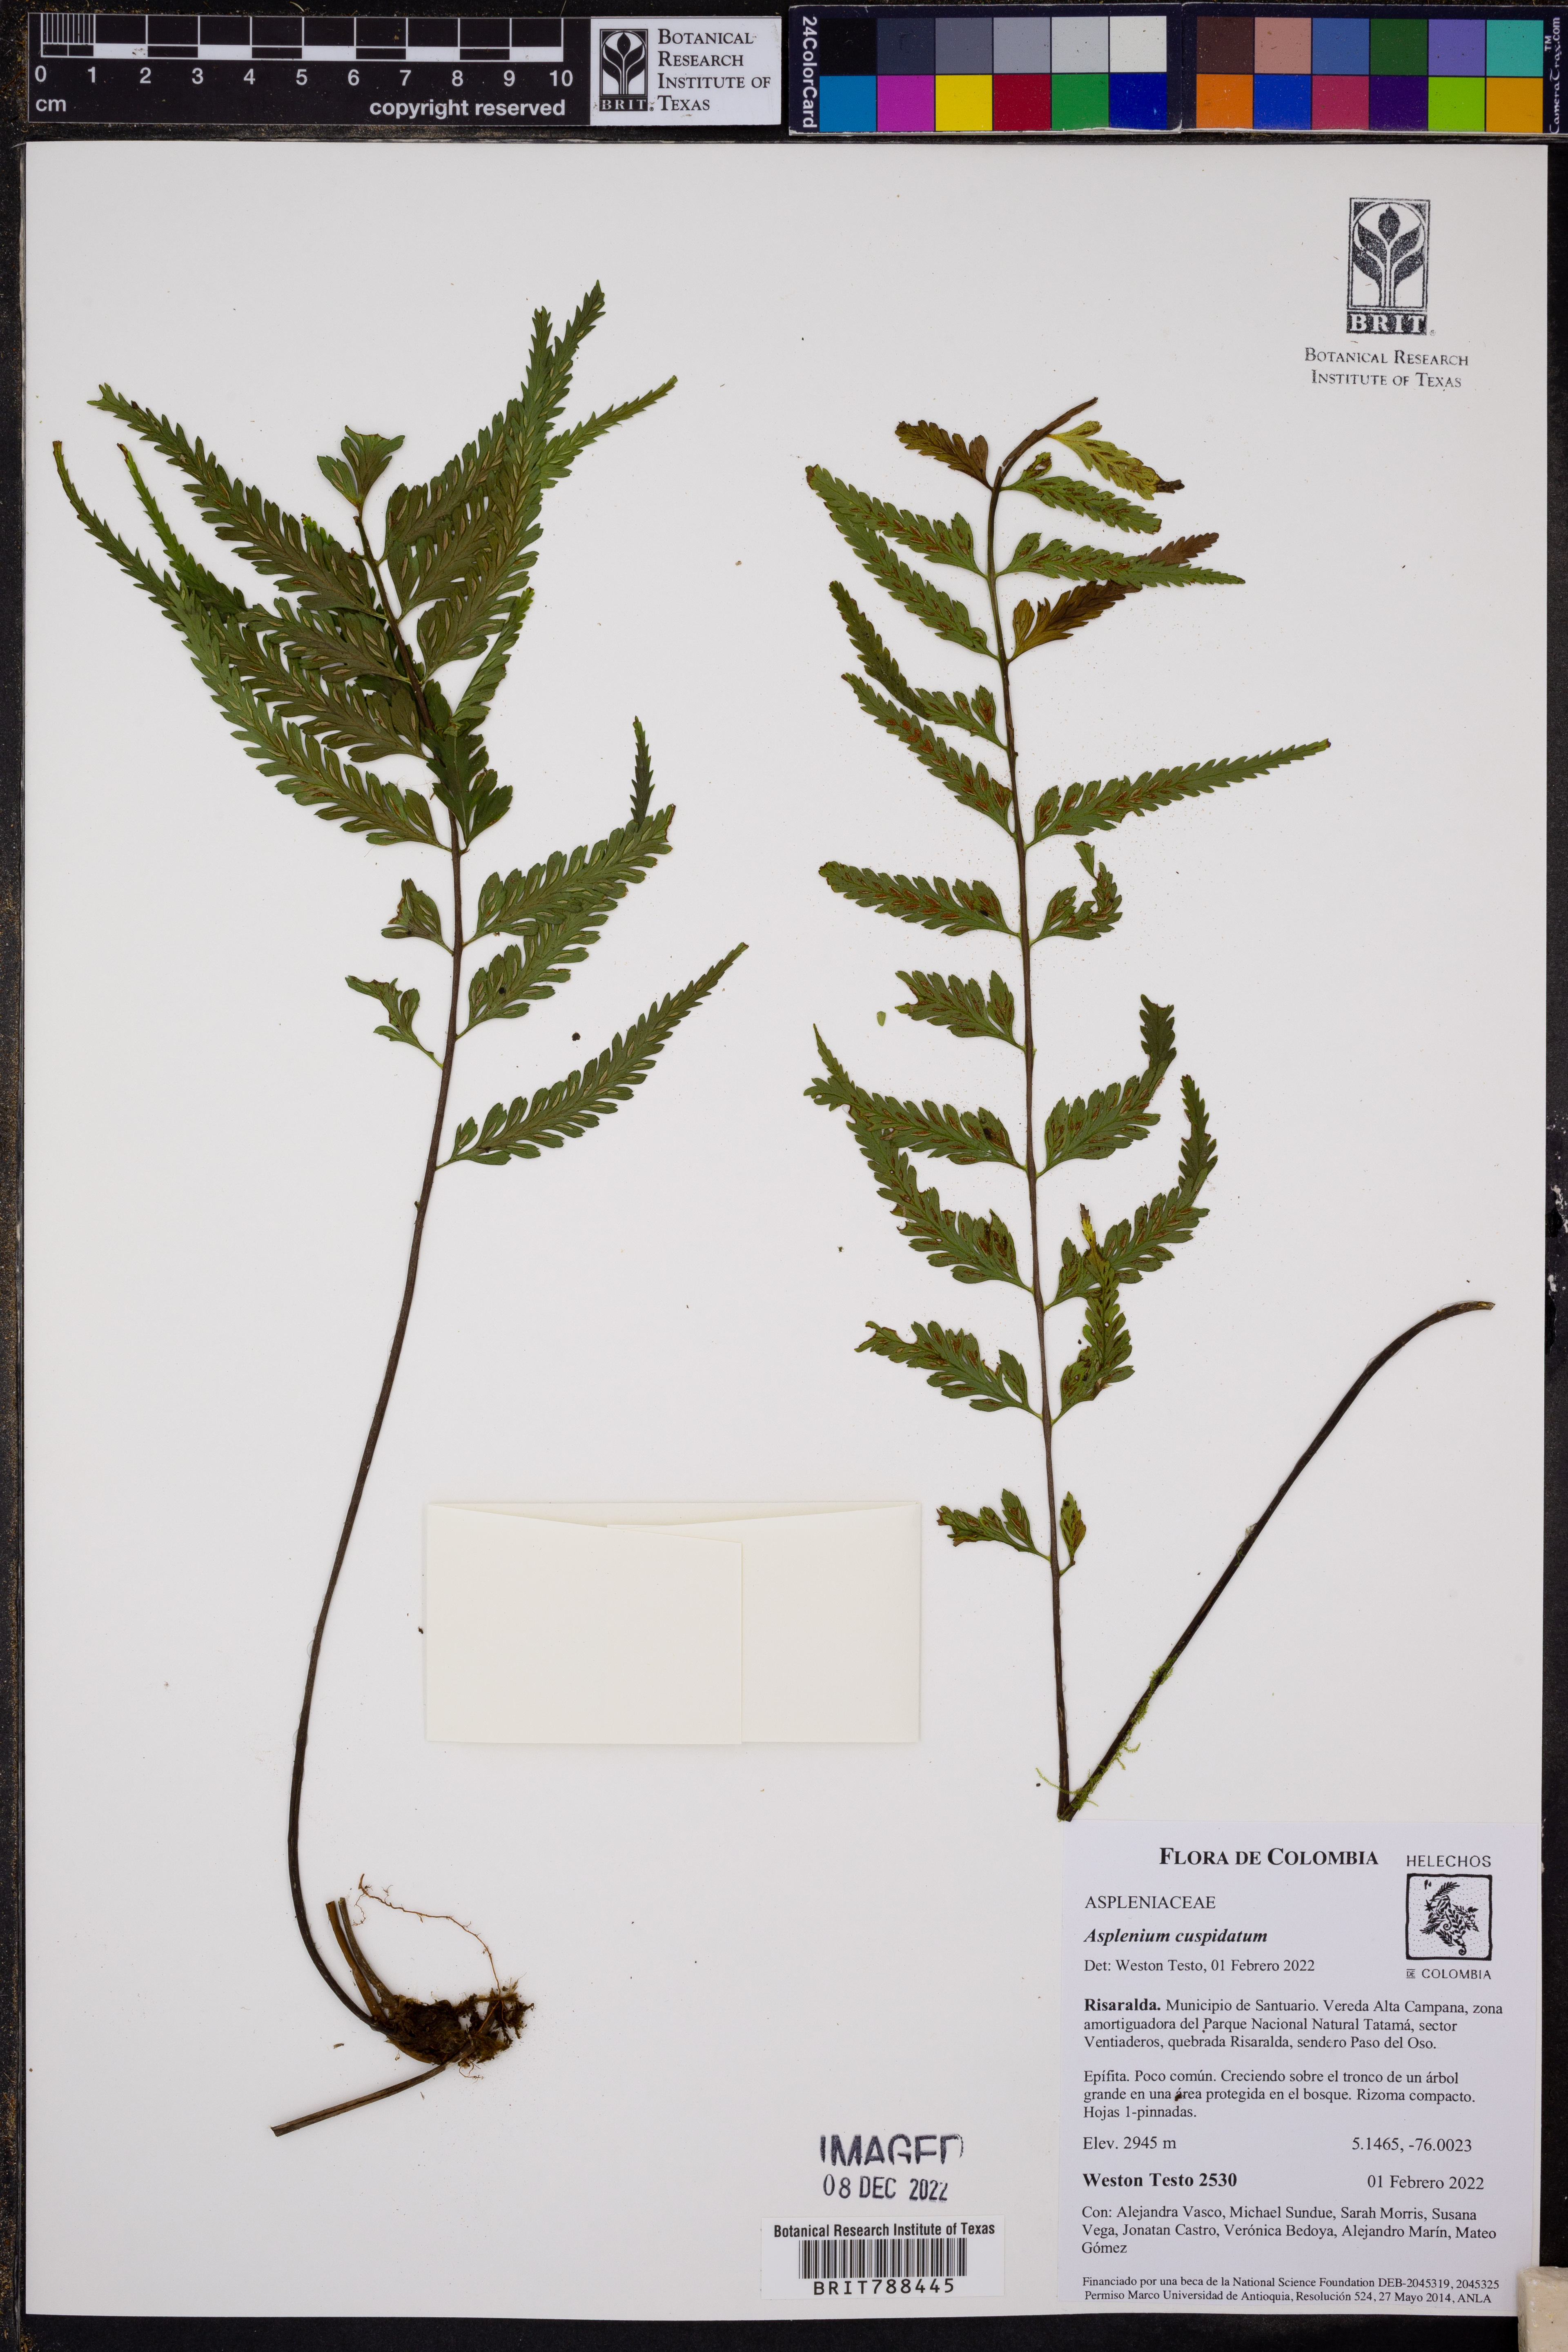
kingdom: Plantae
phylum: Tracheophyta
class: Polypodiopsida
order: Polypodiales
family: Aspleniaceae
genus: Asplenium
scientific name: Asplenium cuspidatum
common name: Eared spleenwort
